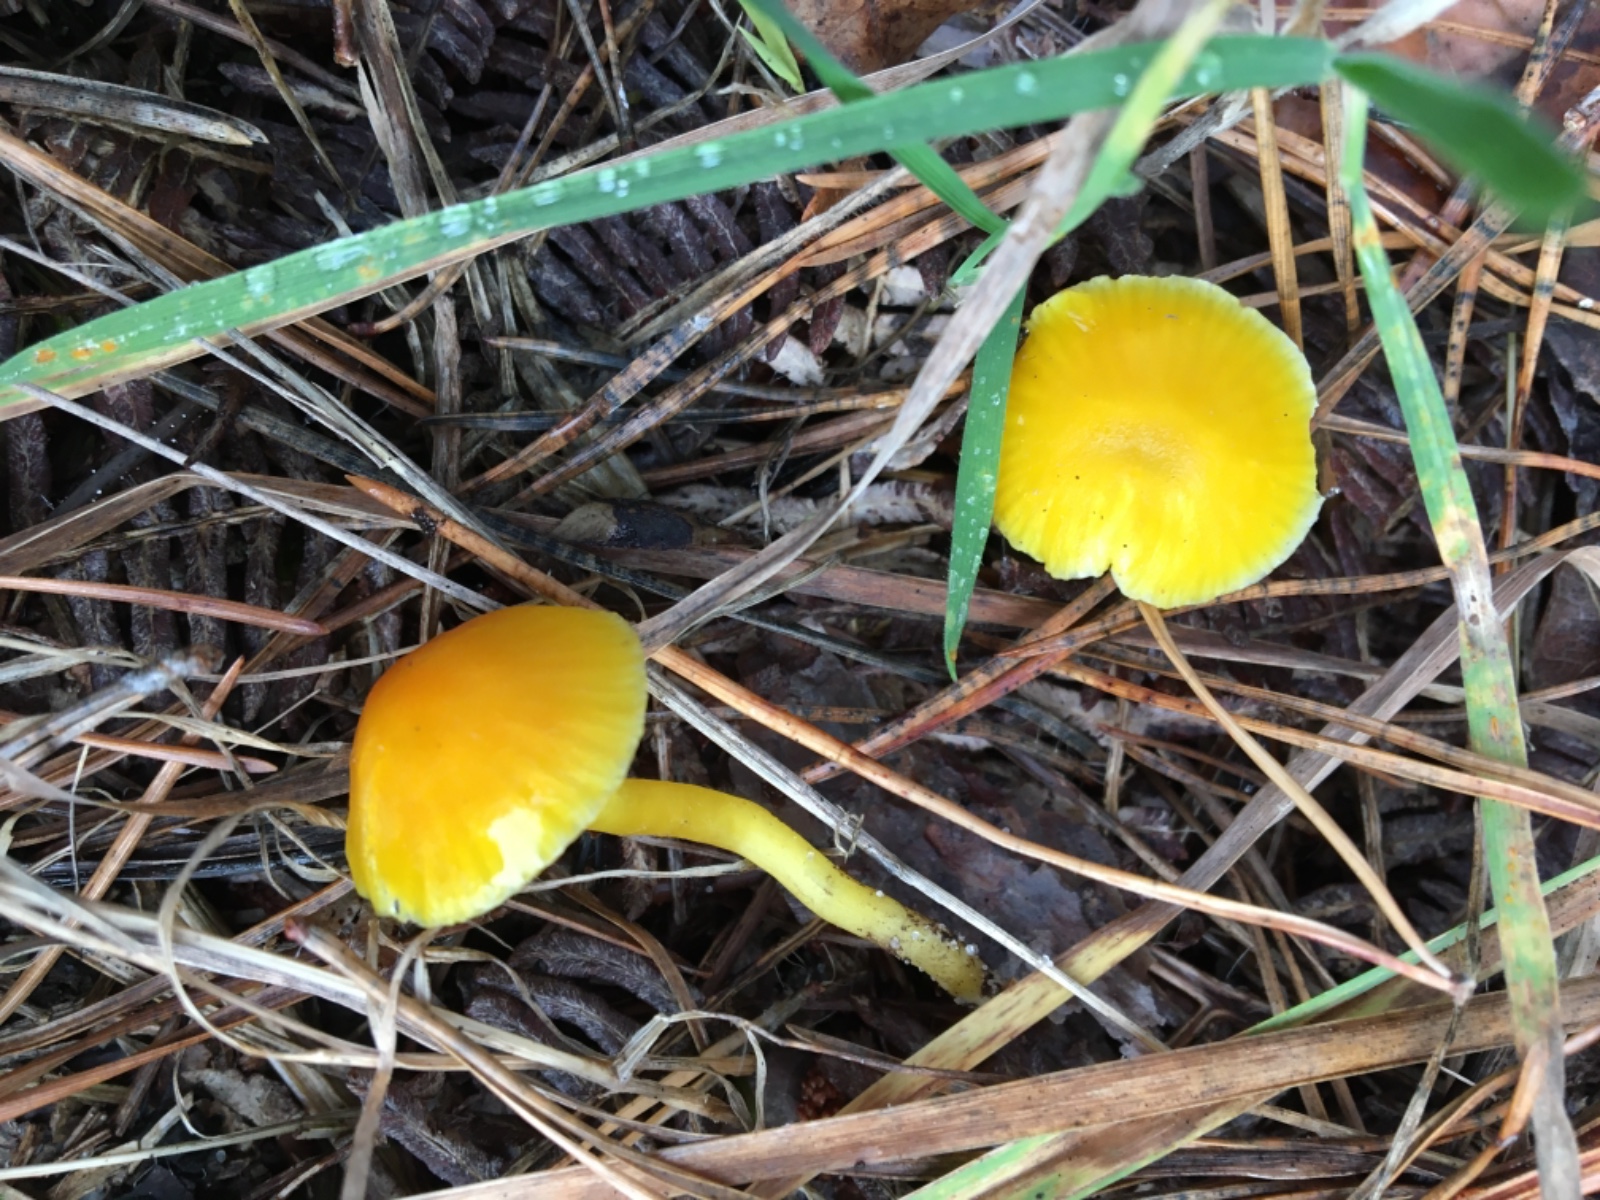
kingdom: Fungi
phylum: Basidiomycota
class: Agaricomycetes
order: Agaricales
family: Hygrophoraceae
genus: Hygrocybe
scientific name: Hygrocybe ceracea
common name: voksgul vokshat
